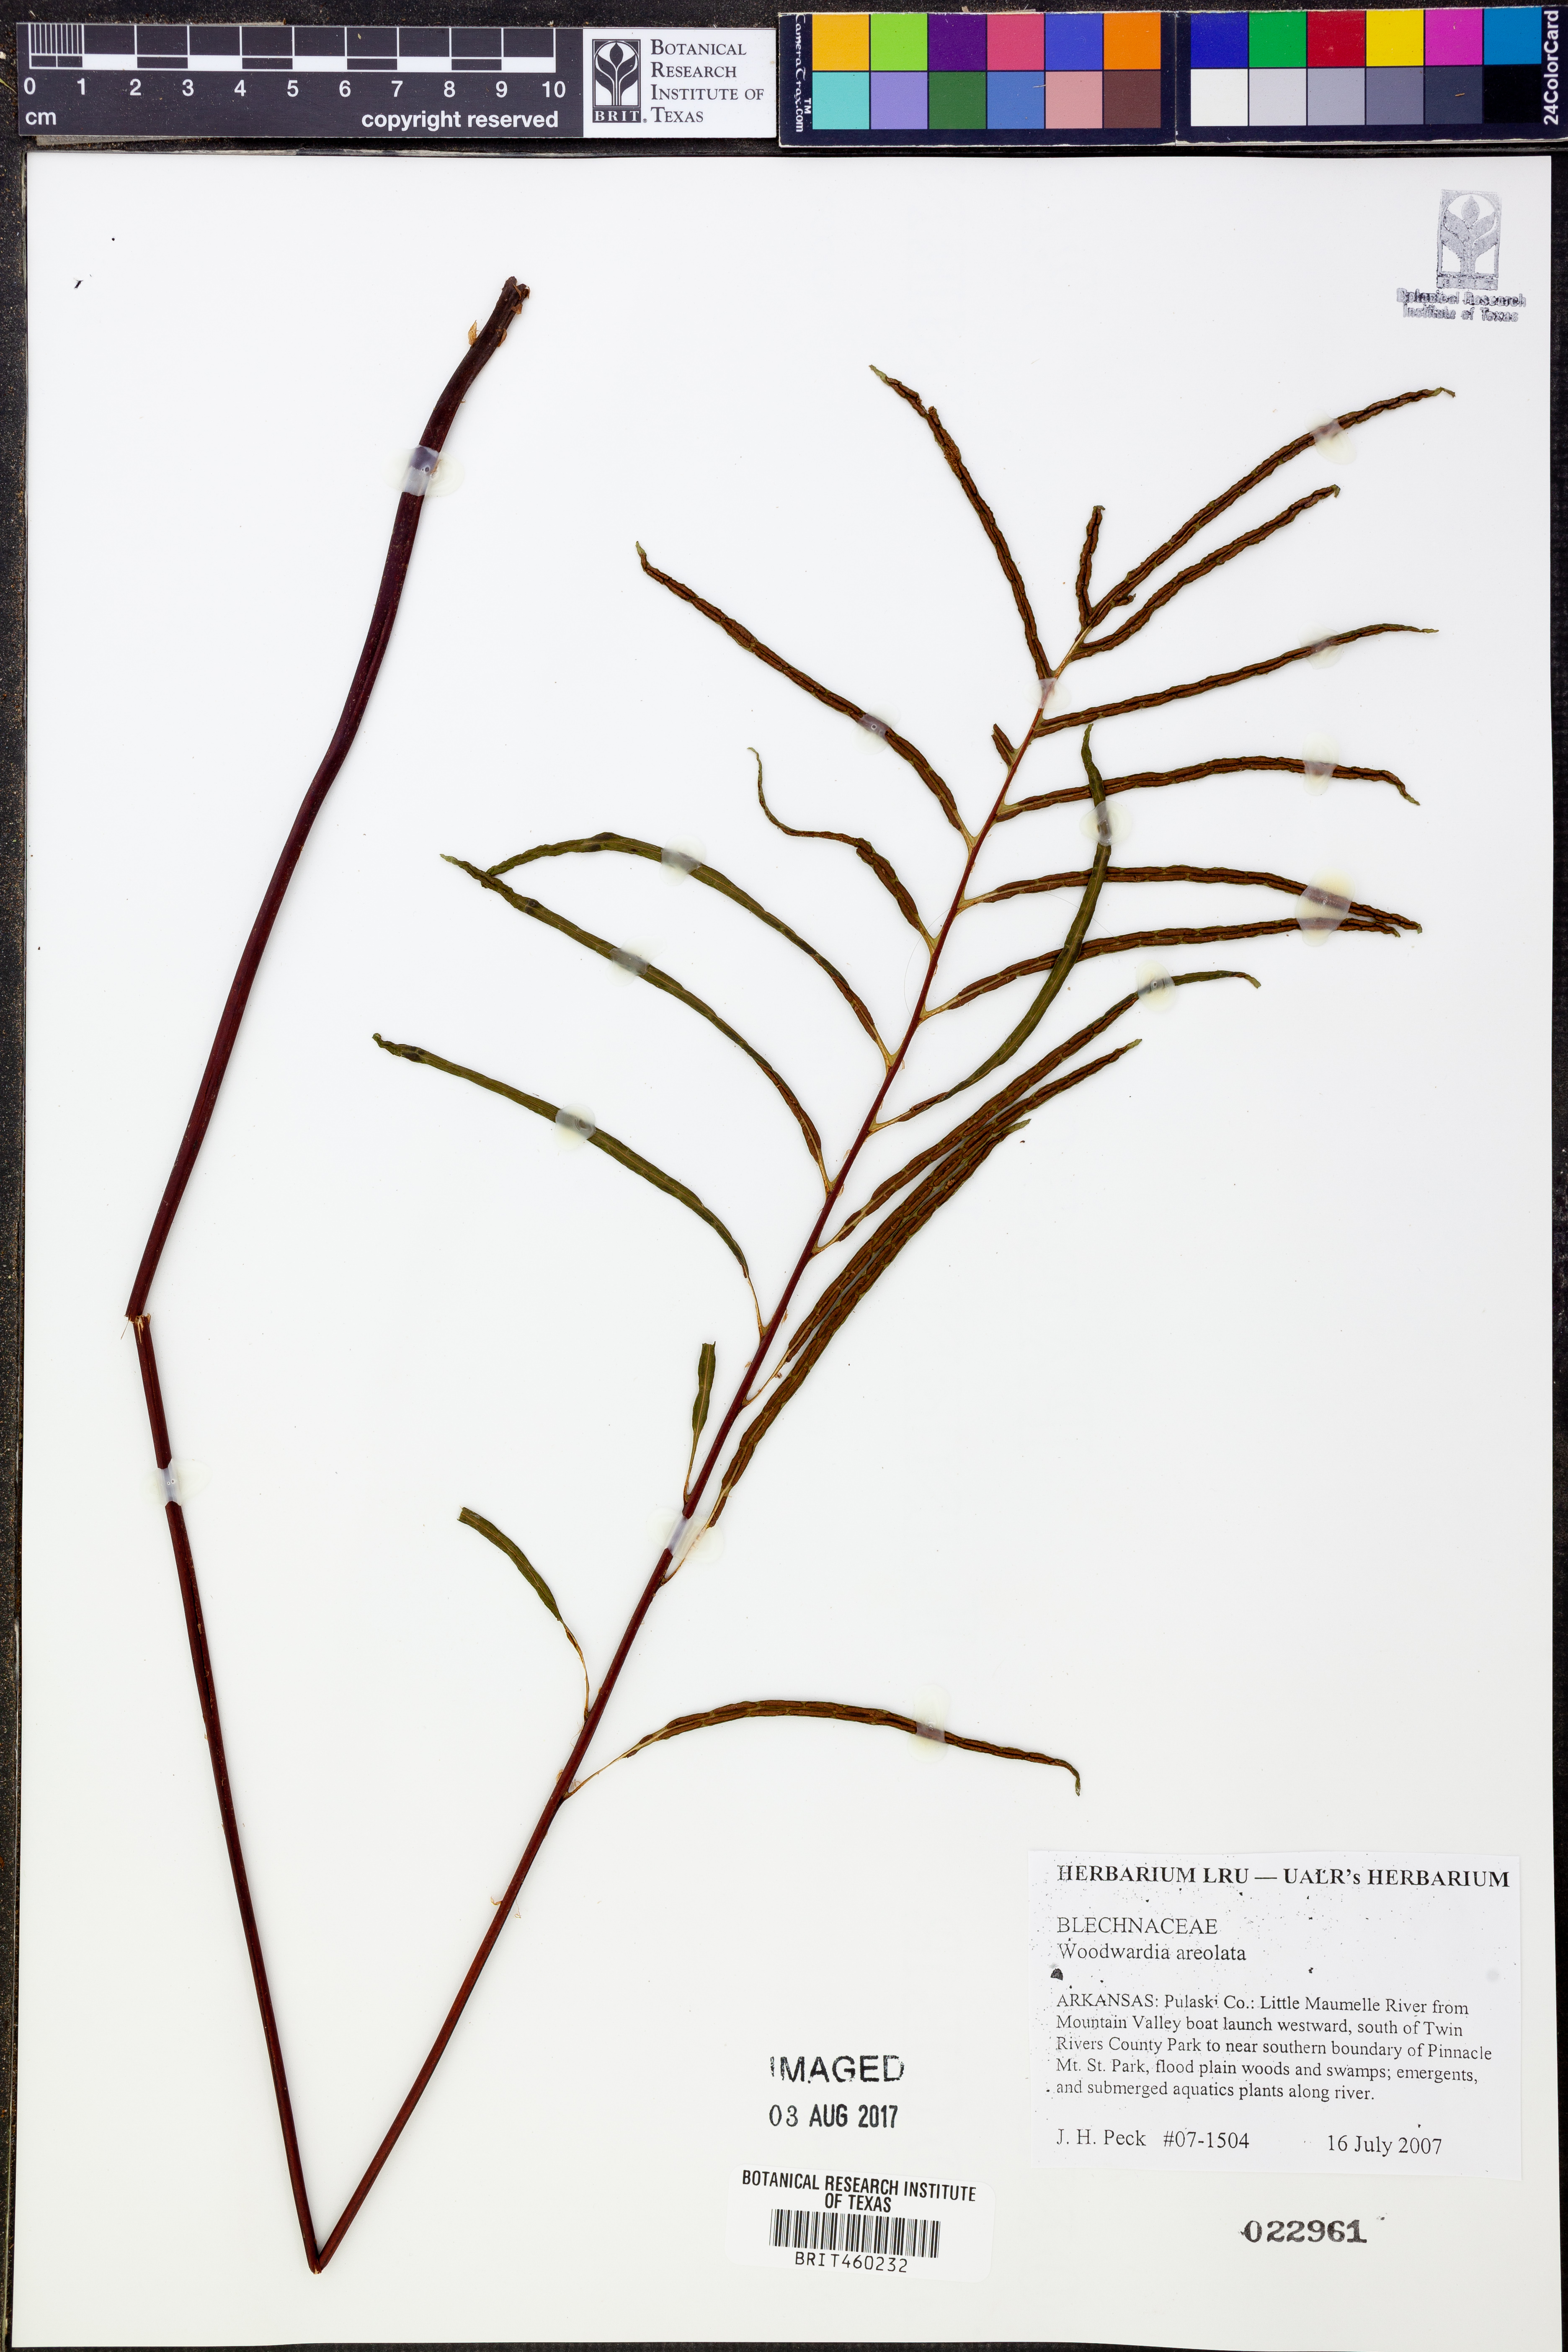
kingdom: Plantae
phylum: Tracheophyta
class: Polypodiopsida
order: Polypodiales
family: Blechnaceae
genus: Lorinseria
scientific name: Lorinseria areolata
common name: Dwarf chain fern
